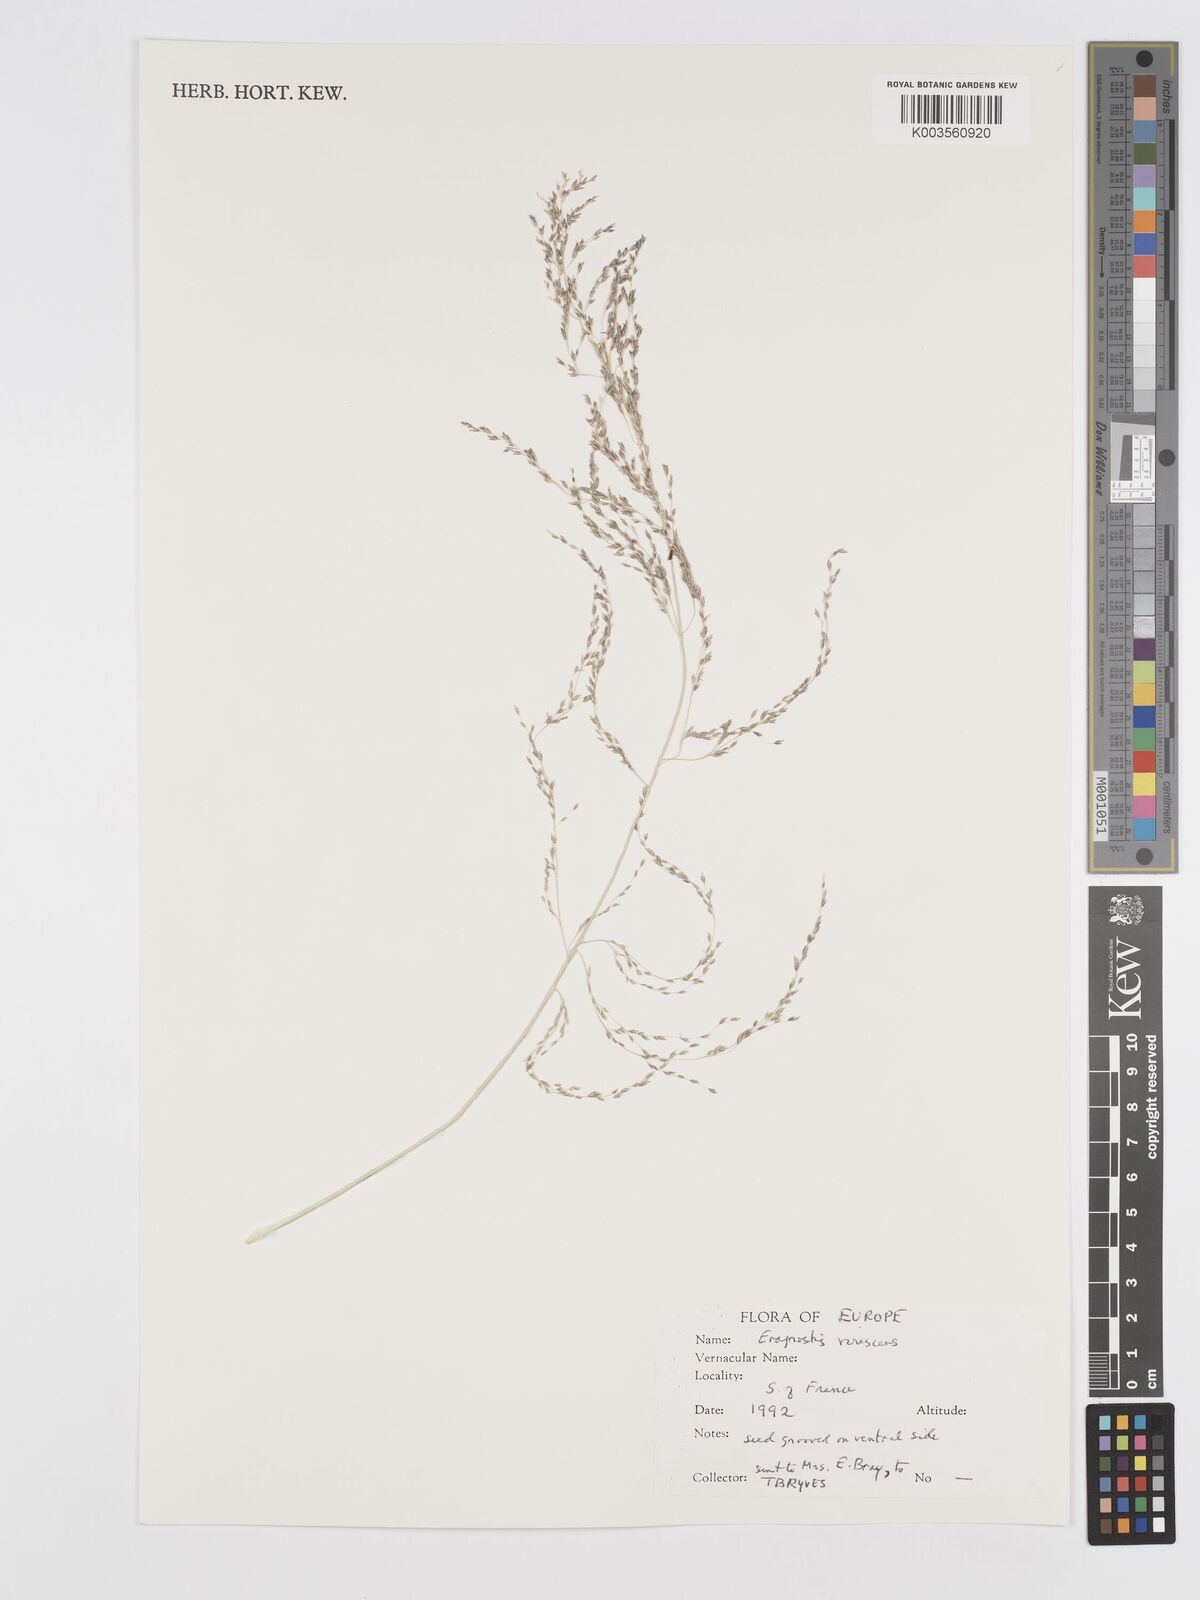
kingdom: Plantae
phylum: Tracheophyta
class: Liliopsida
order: Poales
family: Poaceae
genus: Eragrostis
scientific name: Eragrostis mexicana
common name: Mexican love grass
